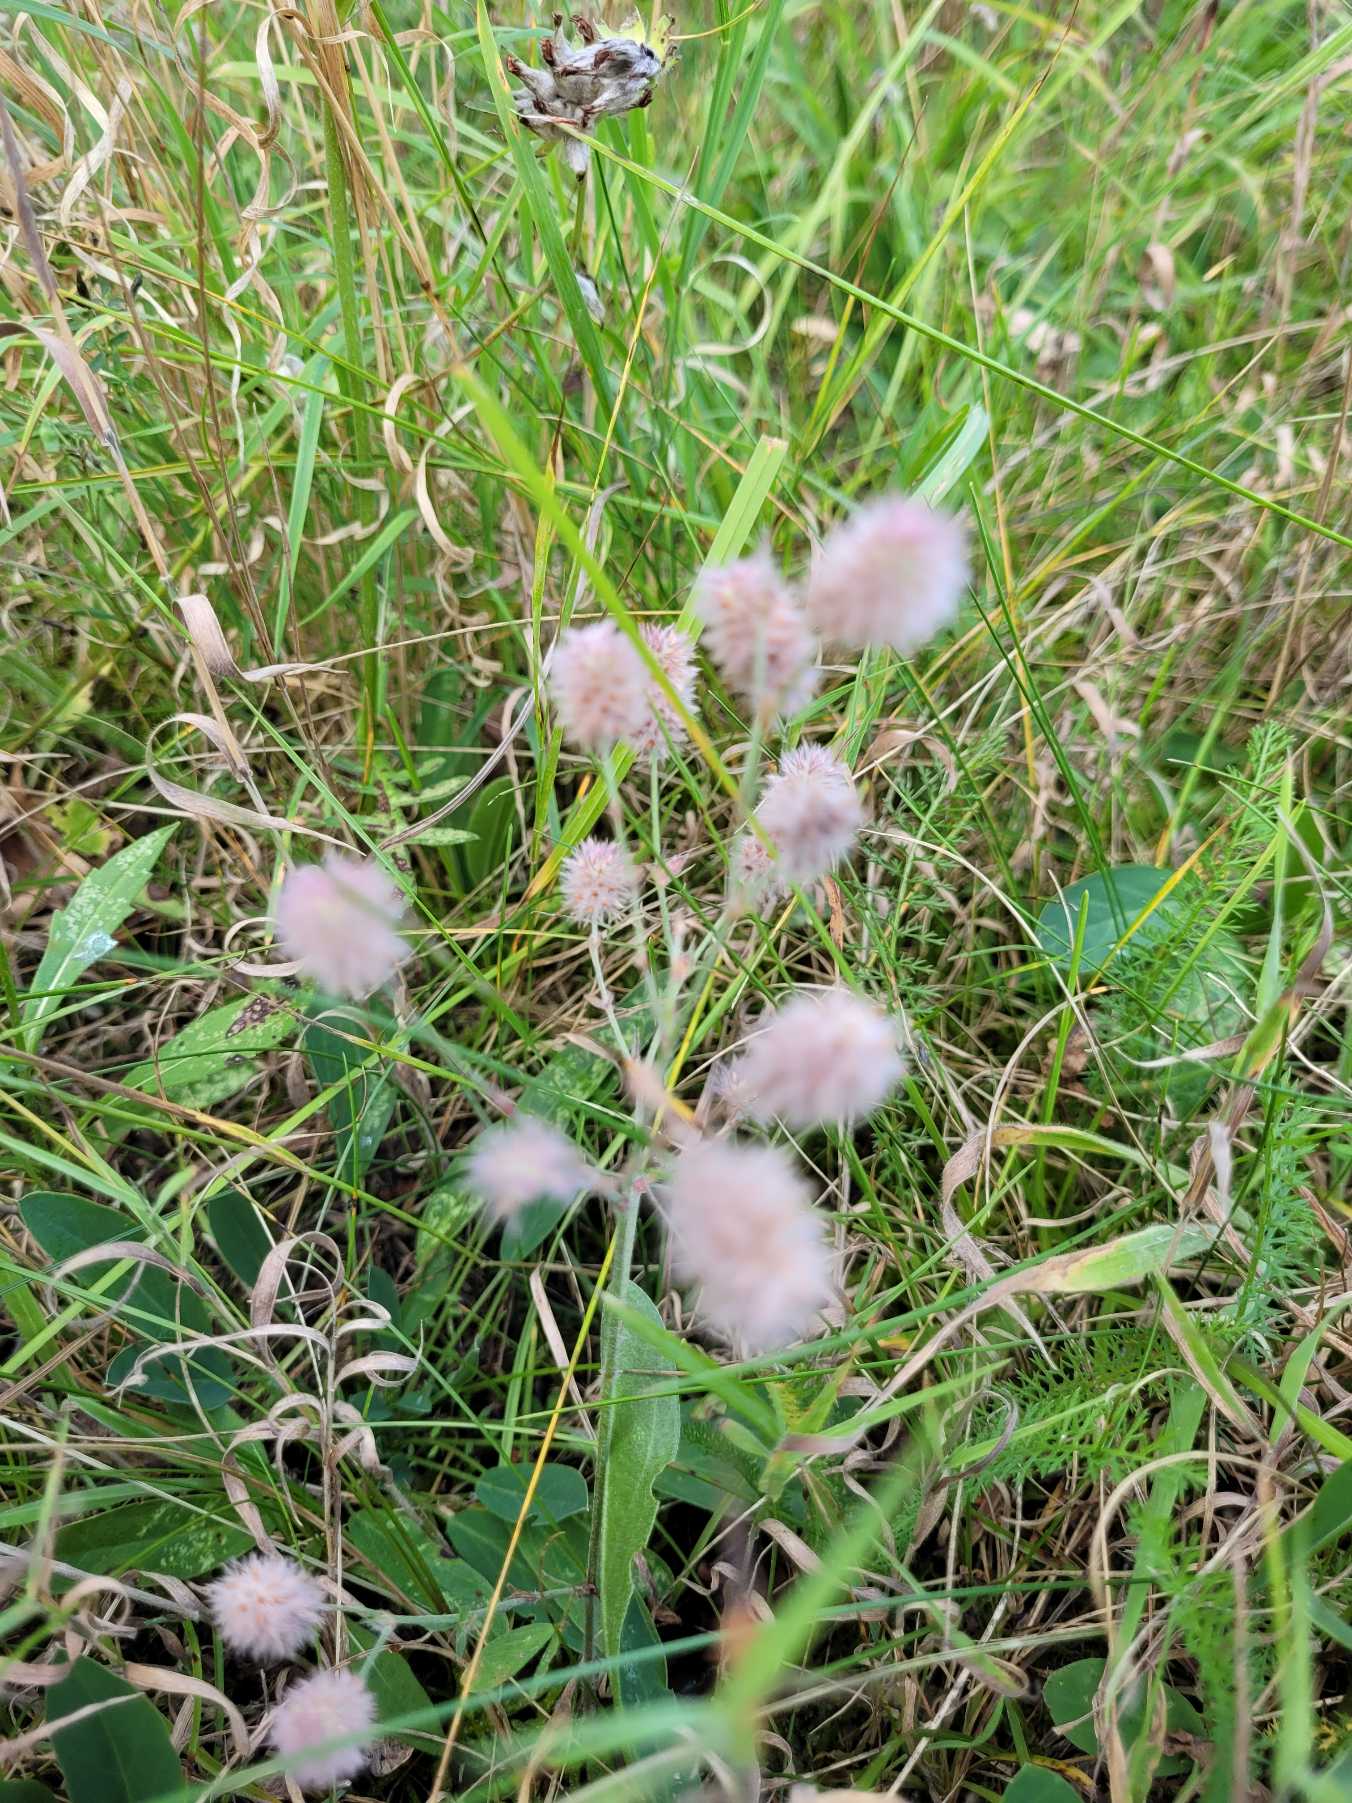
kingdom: Plantae
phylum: Tracheophyta
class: Magnoliopsida
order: Fabales
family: Fabaceae
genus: Trifolium
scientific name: Trifolium arvense
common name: Hare-kløver
